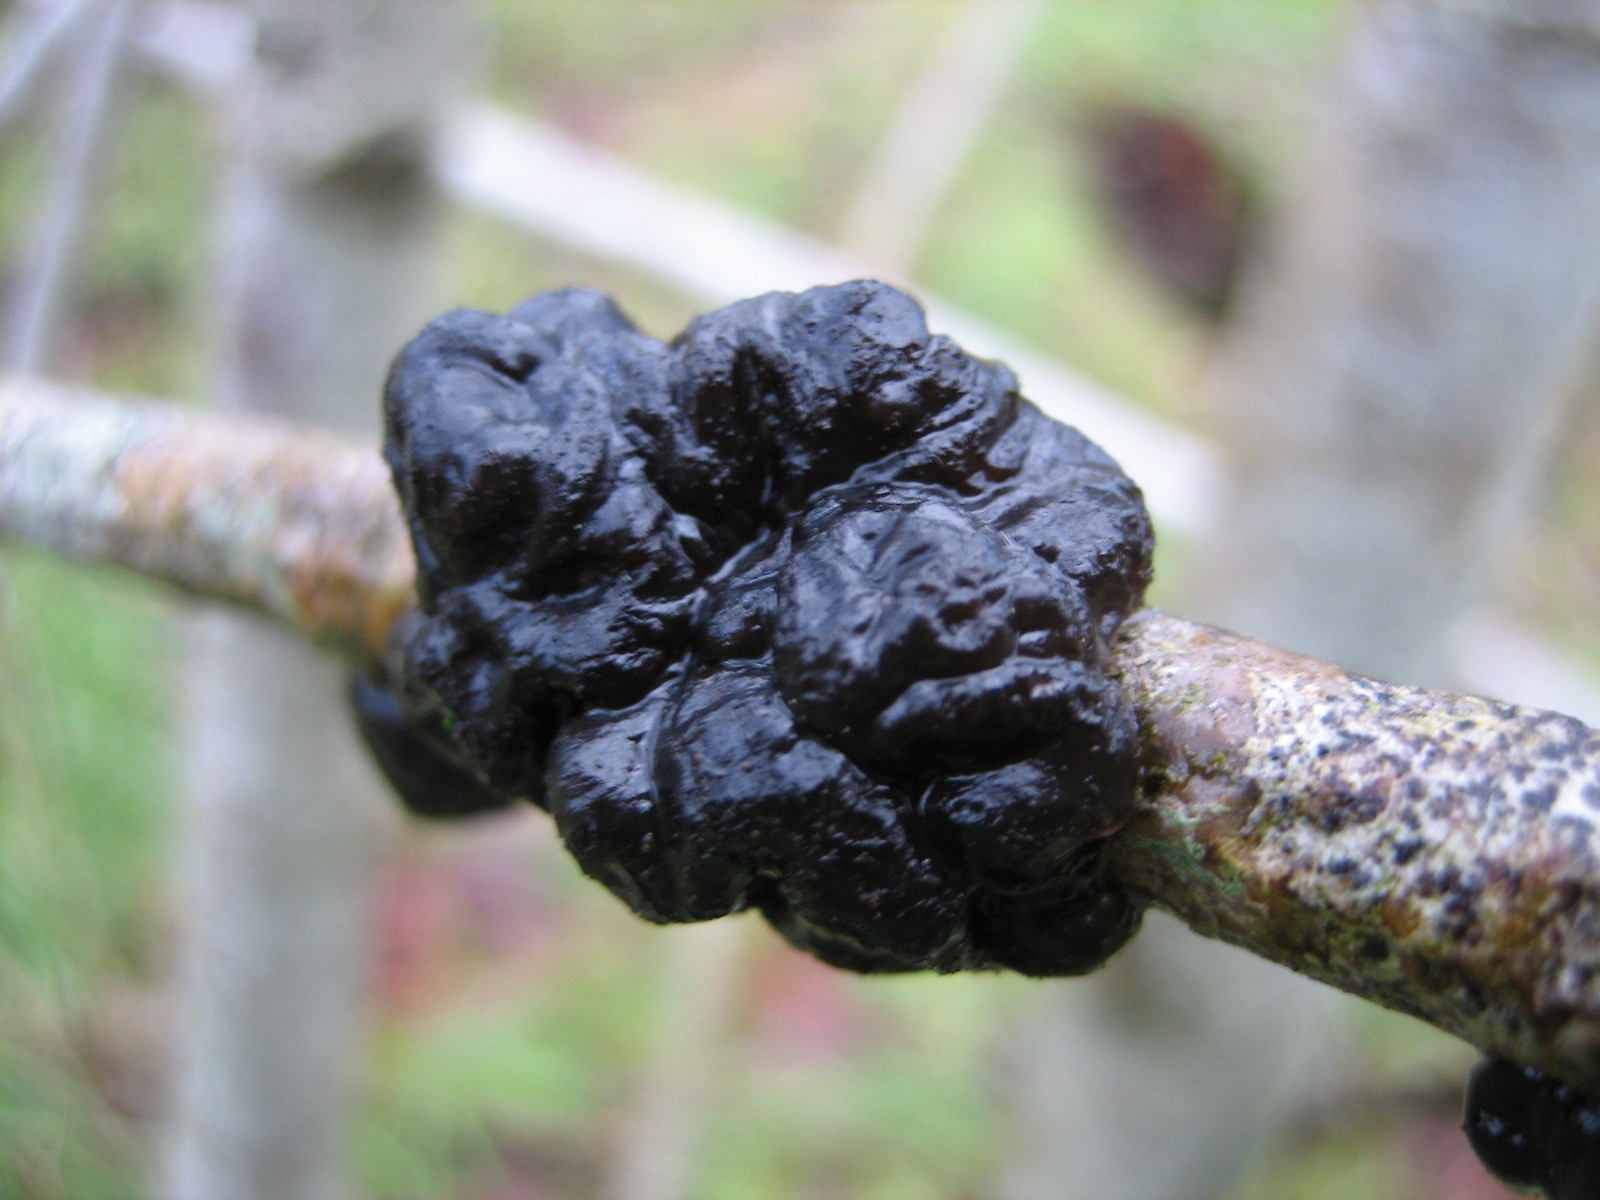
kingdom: Fungi
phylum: Basidiomycota
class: Agaricomycetes
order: Auriculariales
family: Auriculariaceae
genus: Exidia
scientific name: Exidia nigricans
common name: almindelig bævretop
